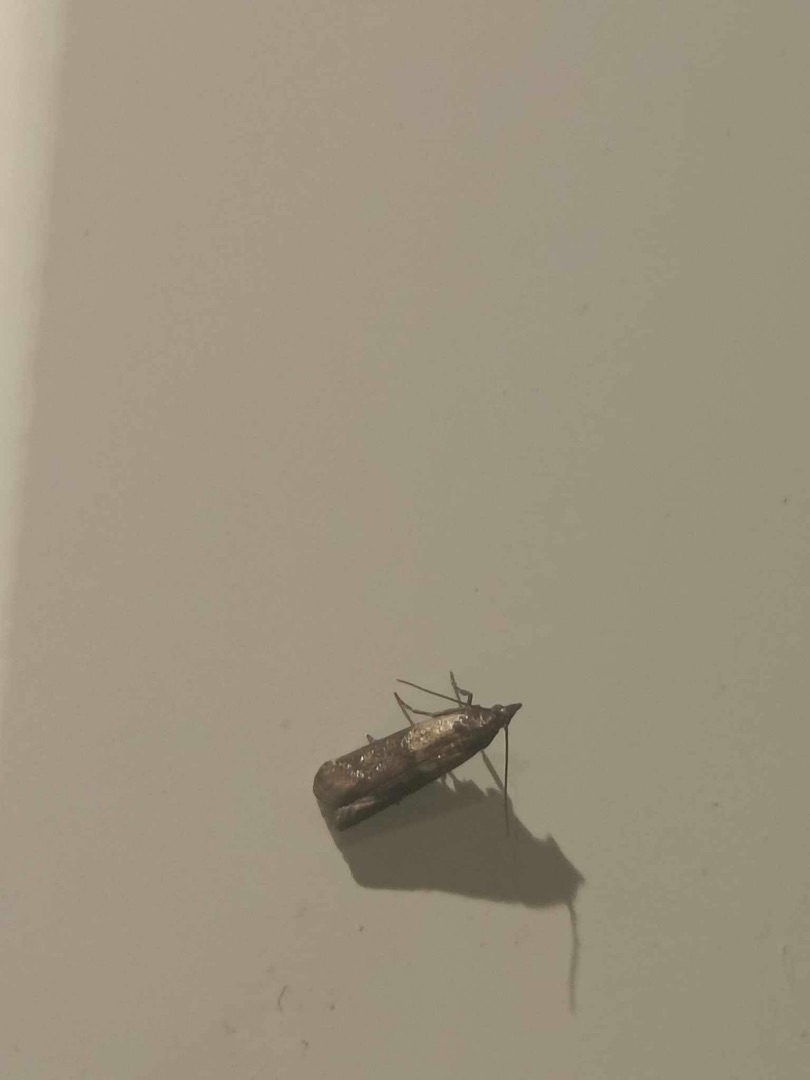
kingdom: Animalia
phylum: Arthropoda
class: Insecta
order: Lepidoptera
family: Pyralidae
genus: Plodia
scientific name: Plodia interpunctella
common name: Tofarvet frømøl
